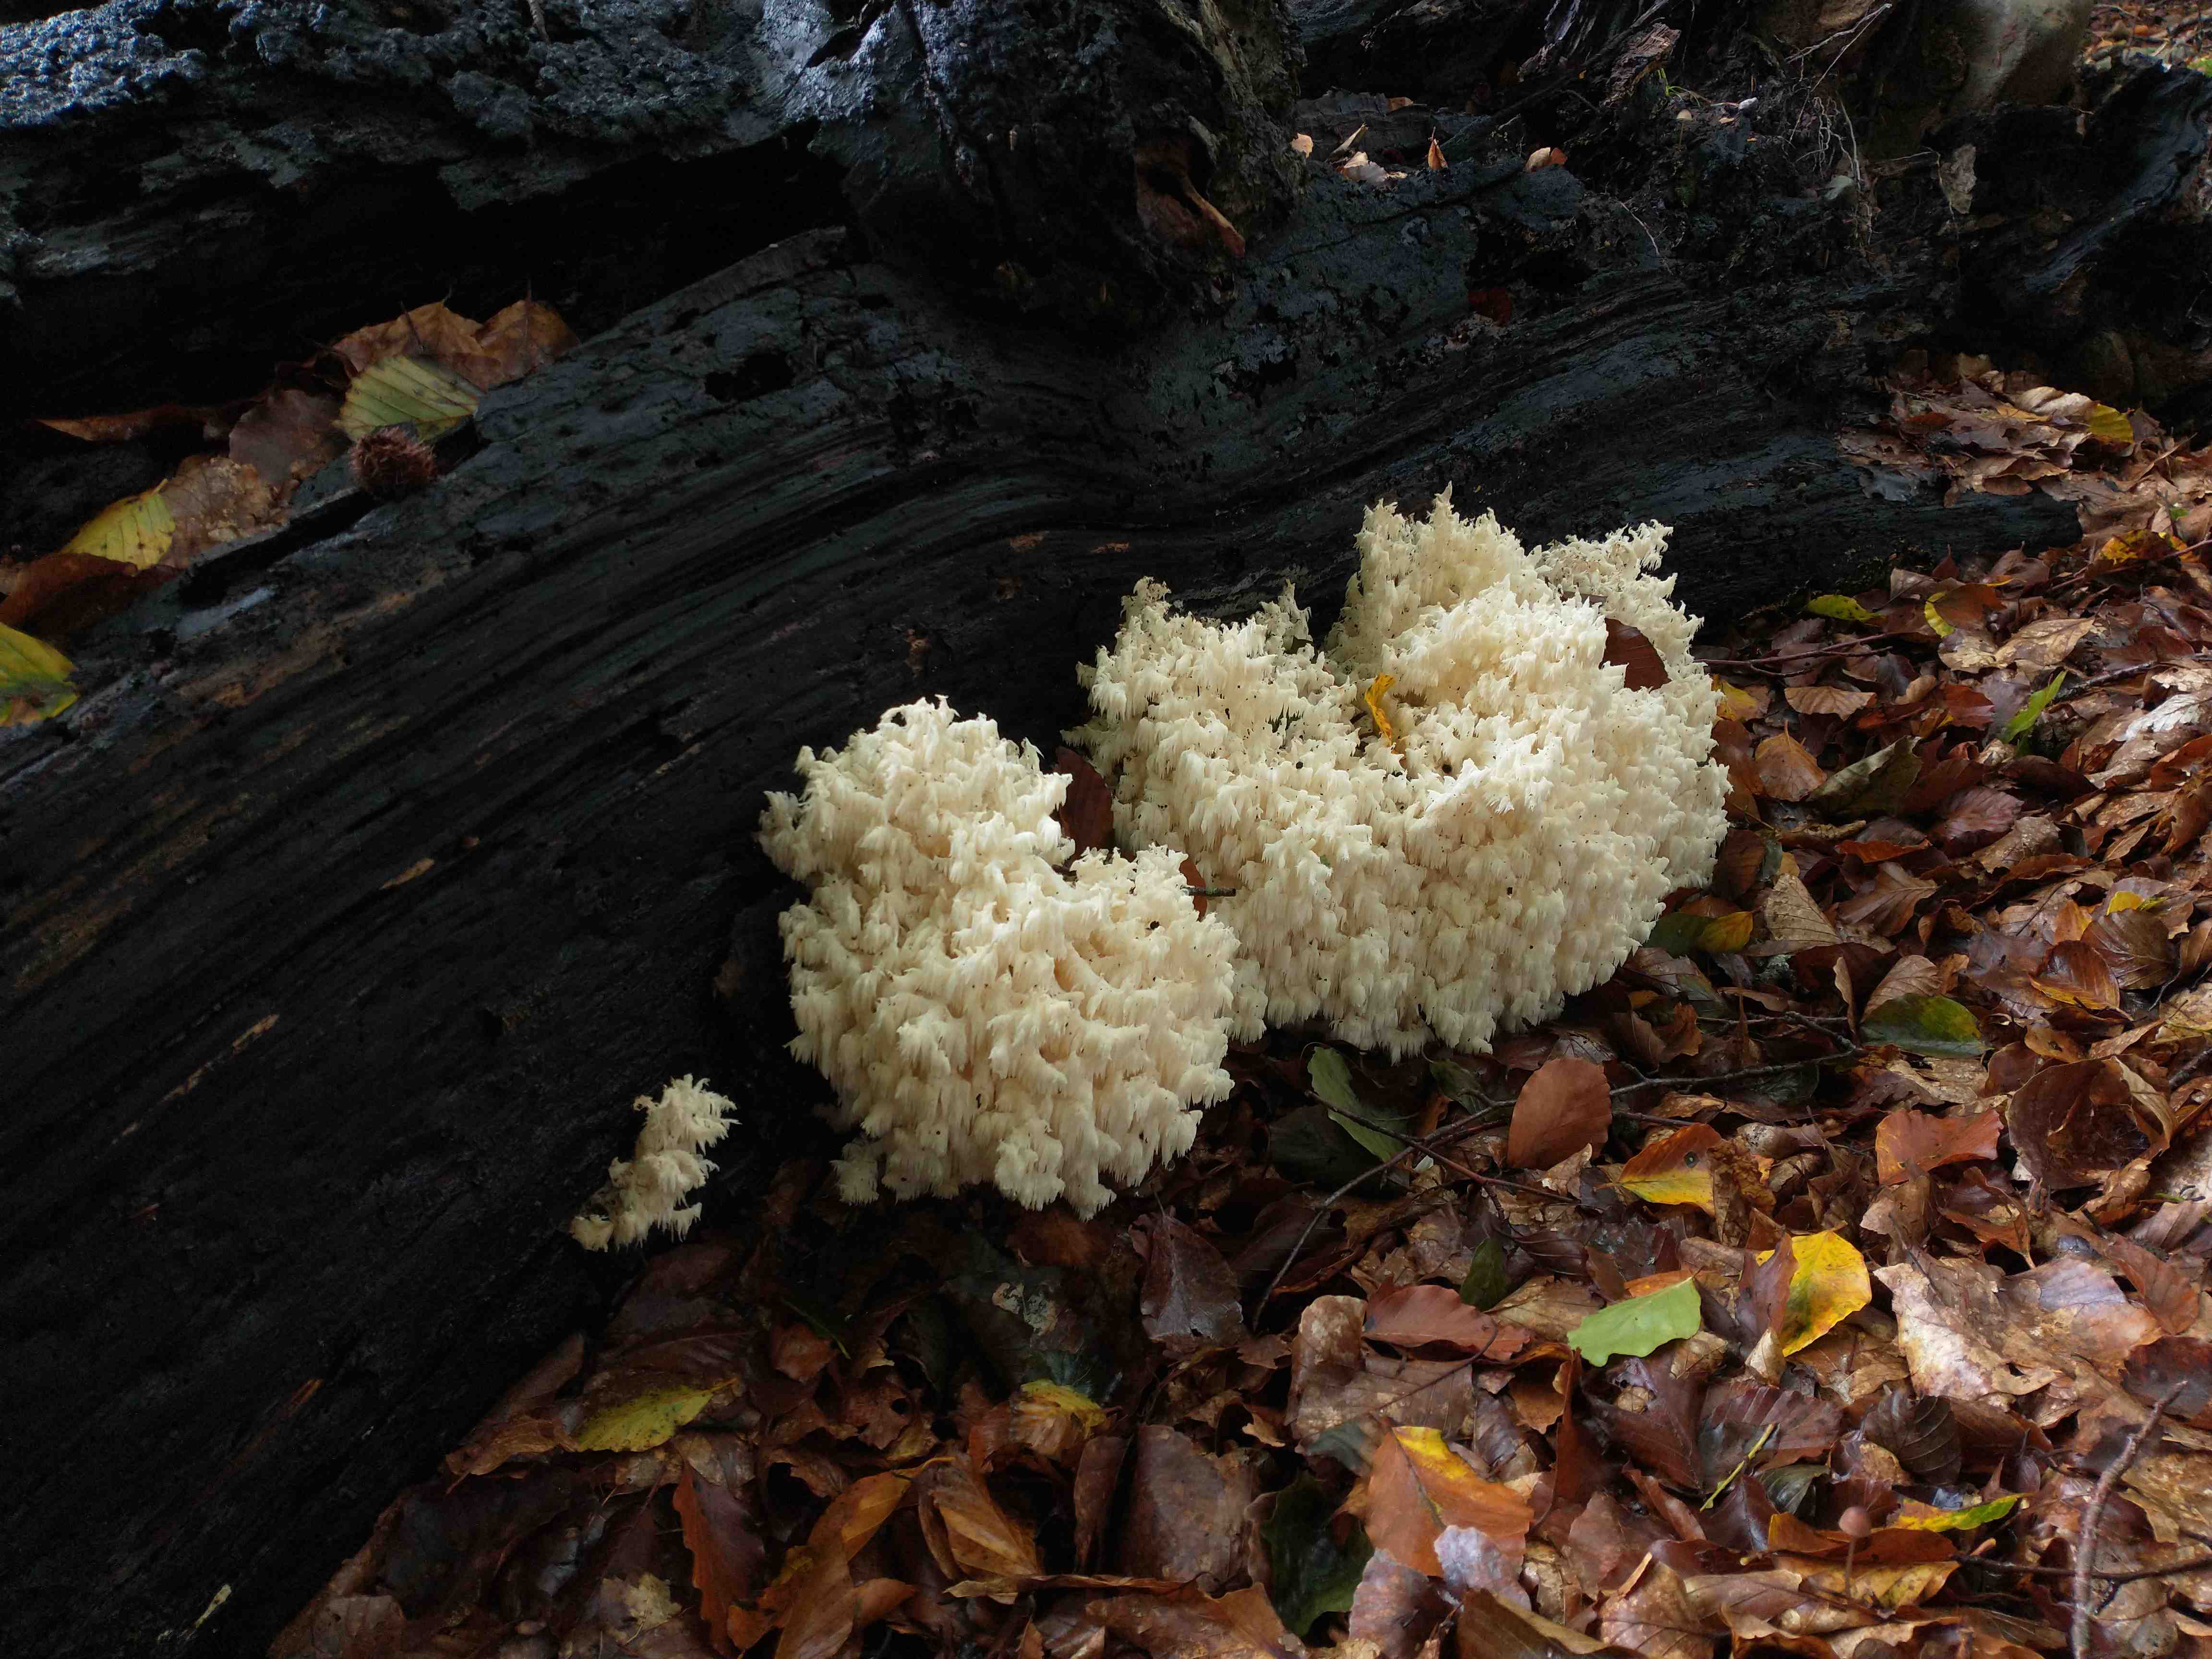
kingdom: Fungi
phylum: Basidiomycota
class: Agaricomycetes
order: Russulales
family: Hericiaceae
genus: Hericium
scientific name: Hericium coralloides
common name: koralpigsvamp
